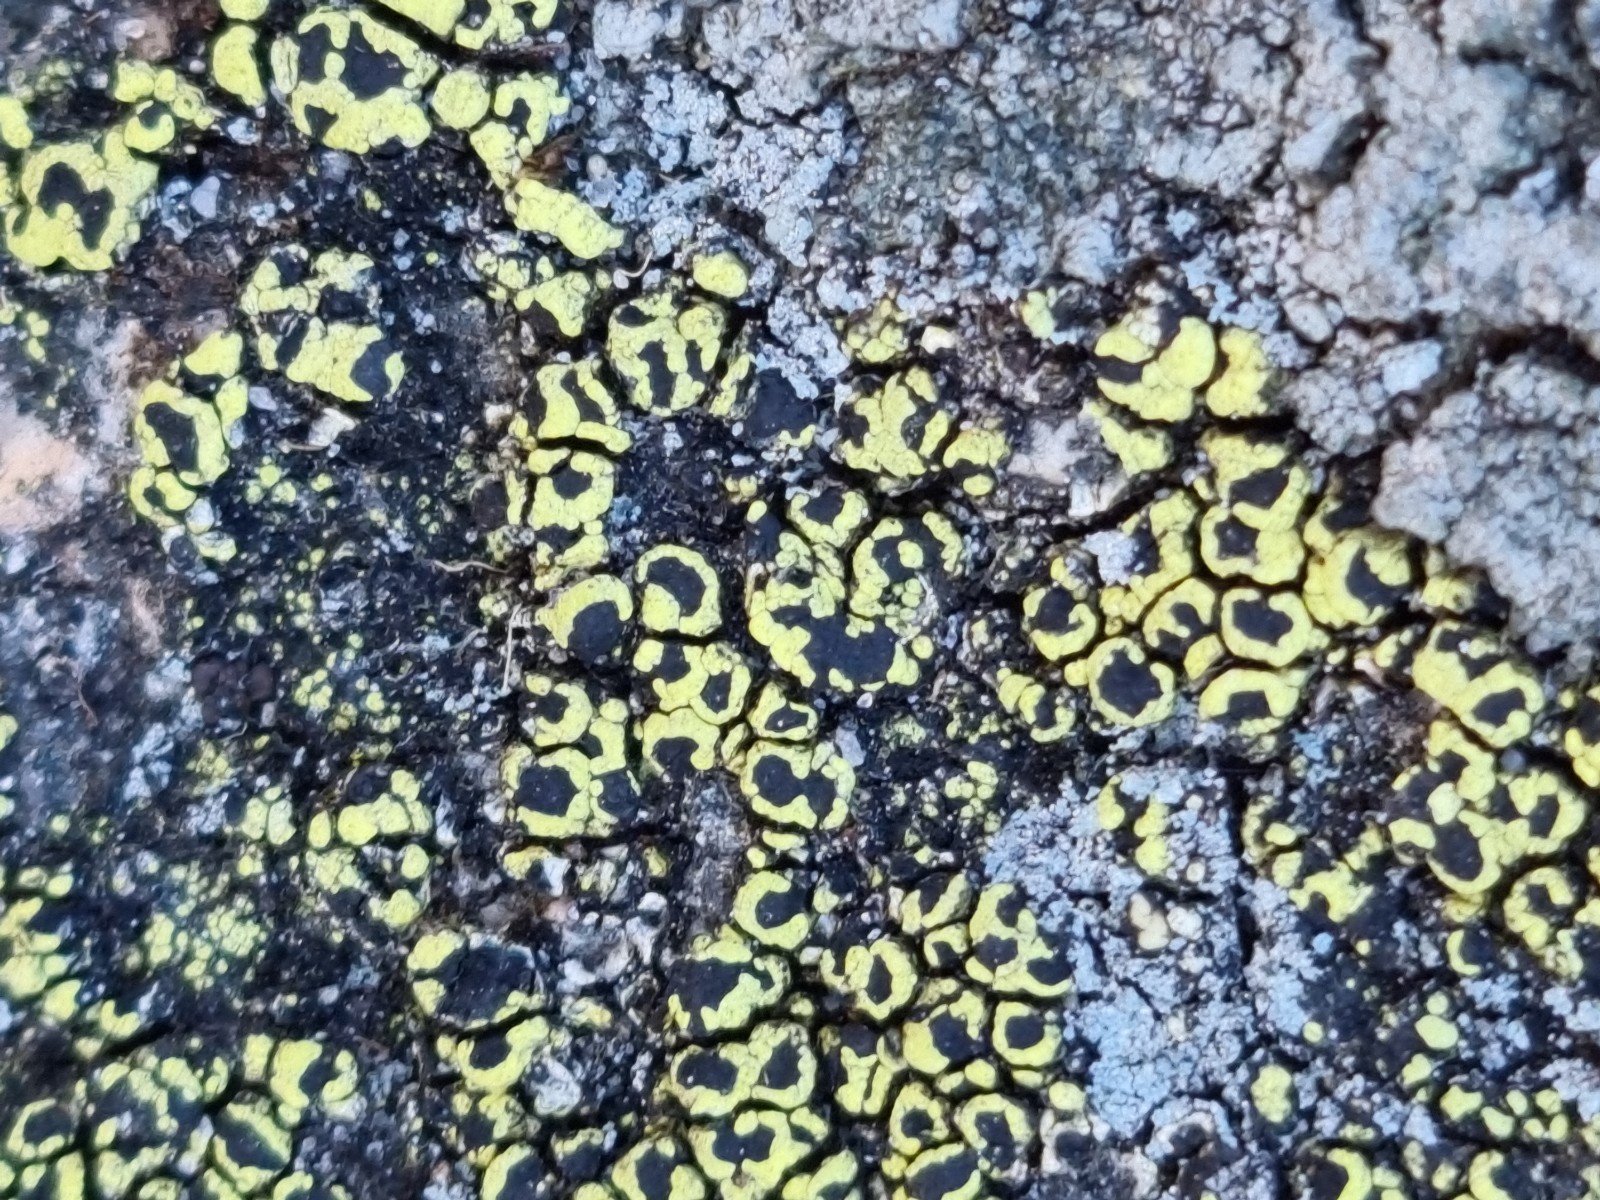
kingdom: Fungi
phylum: Ascomycota
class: Lecanoromycetes
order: Rhizocarpales
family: Rhizocarpaceae
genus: Rhizocarpon
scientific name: Rhizocarpon lecanorinum
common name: krave-landkortlav
